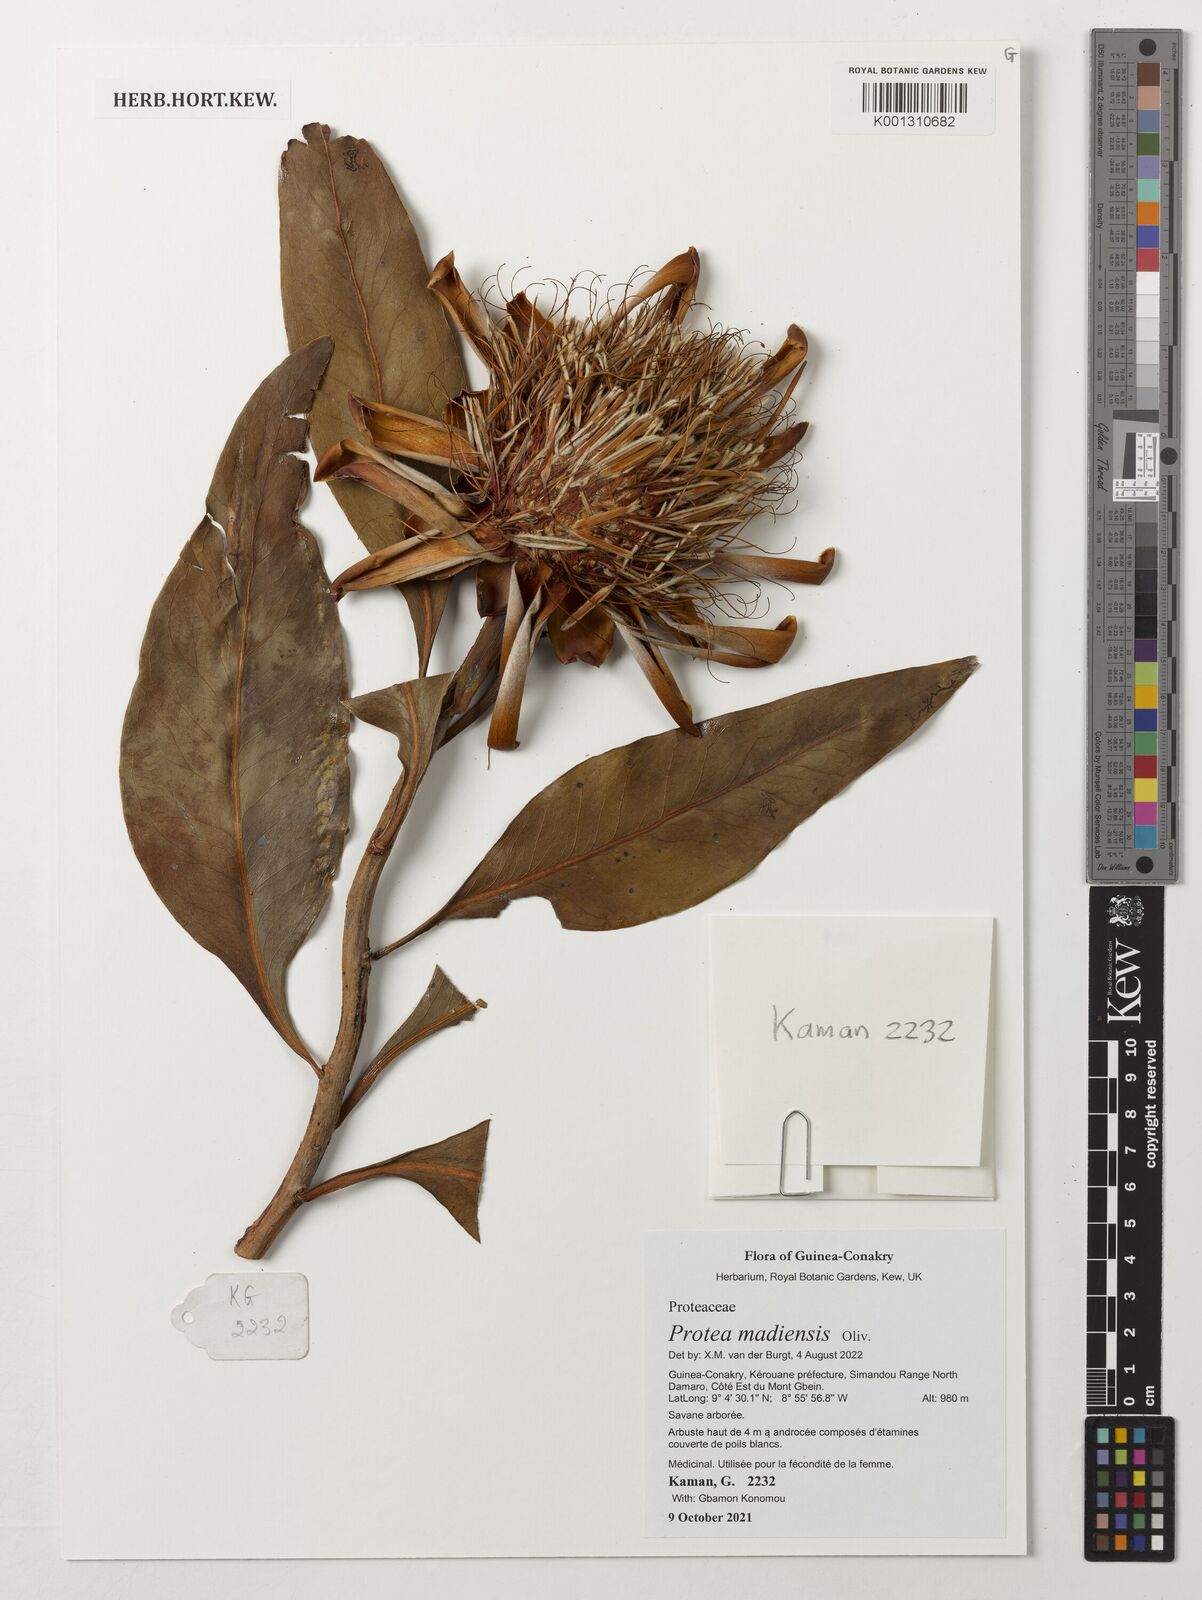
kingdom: Plantae
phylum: Tracheophyta
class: Magnoliopsida
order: Proteales
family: Proteaceae
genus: Protea
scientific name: Protea madiensis
